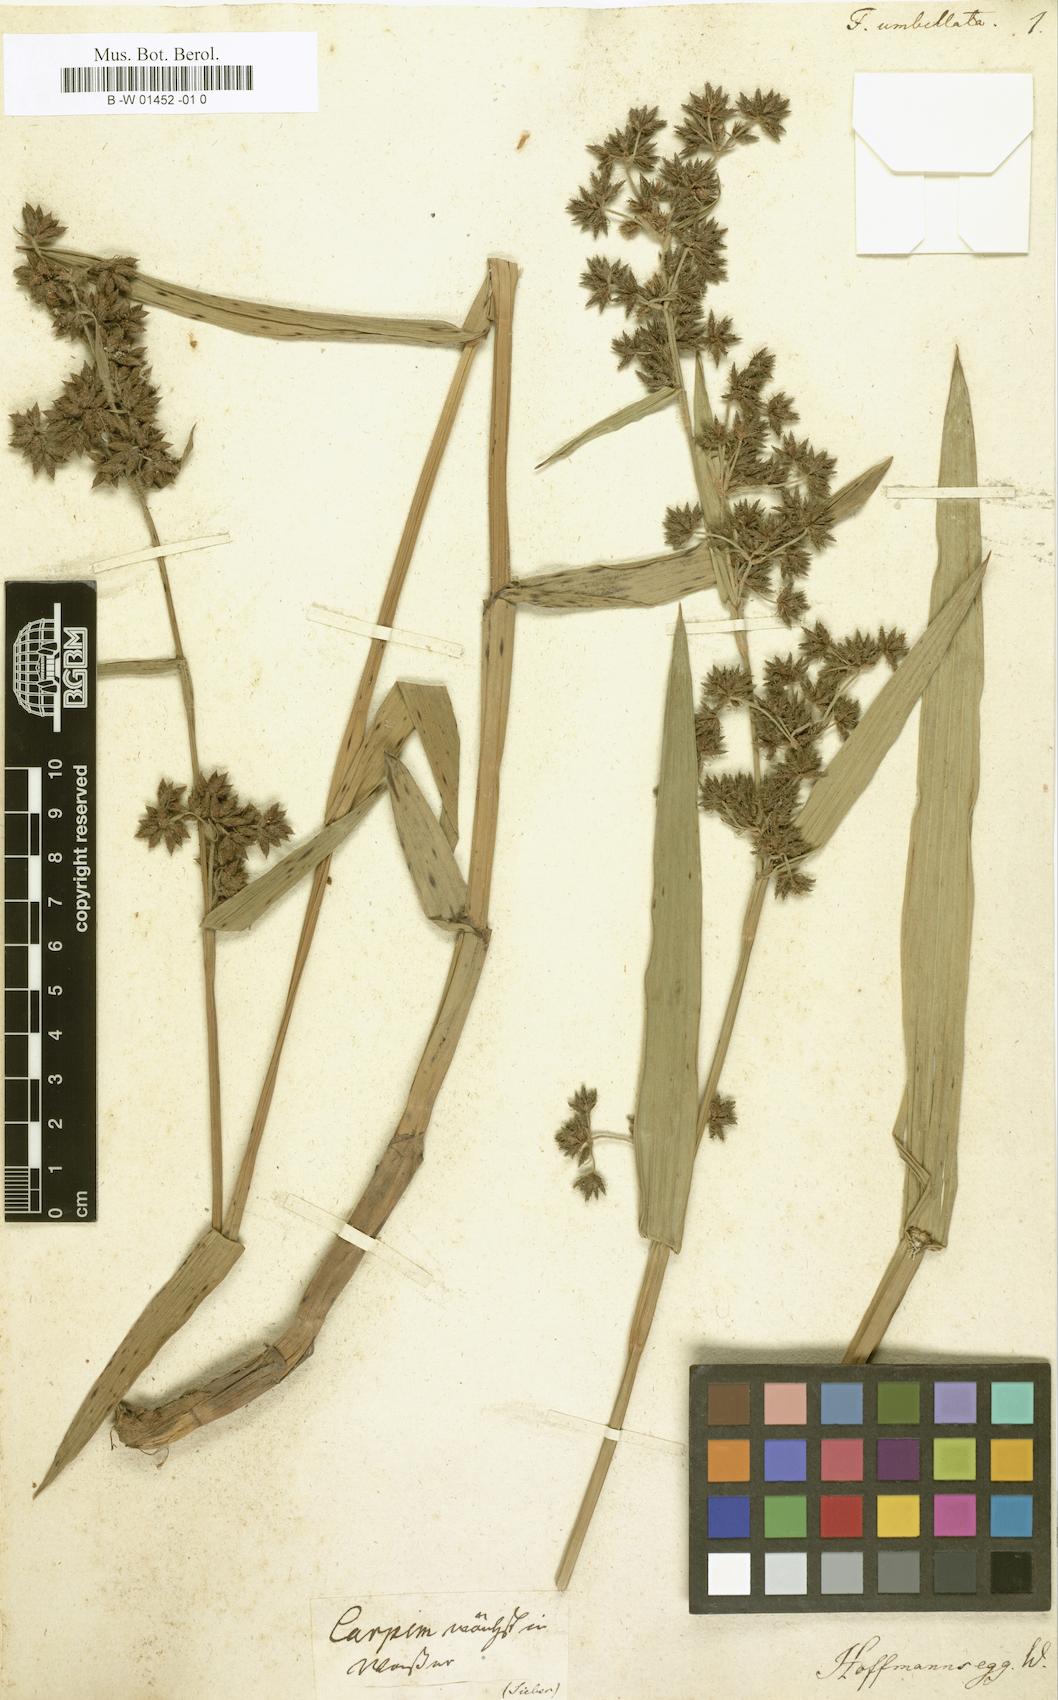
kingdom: Plantae
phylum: Tracheophyta
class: Liliopsida
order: Poales
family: Cyperaceae
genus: Fuirena
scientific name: Fuirena umbellata
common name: Yefen
